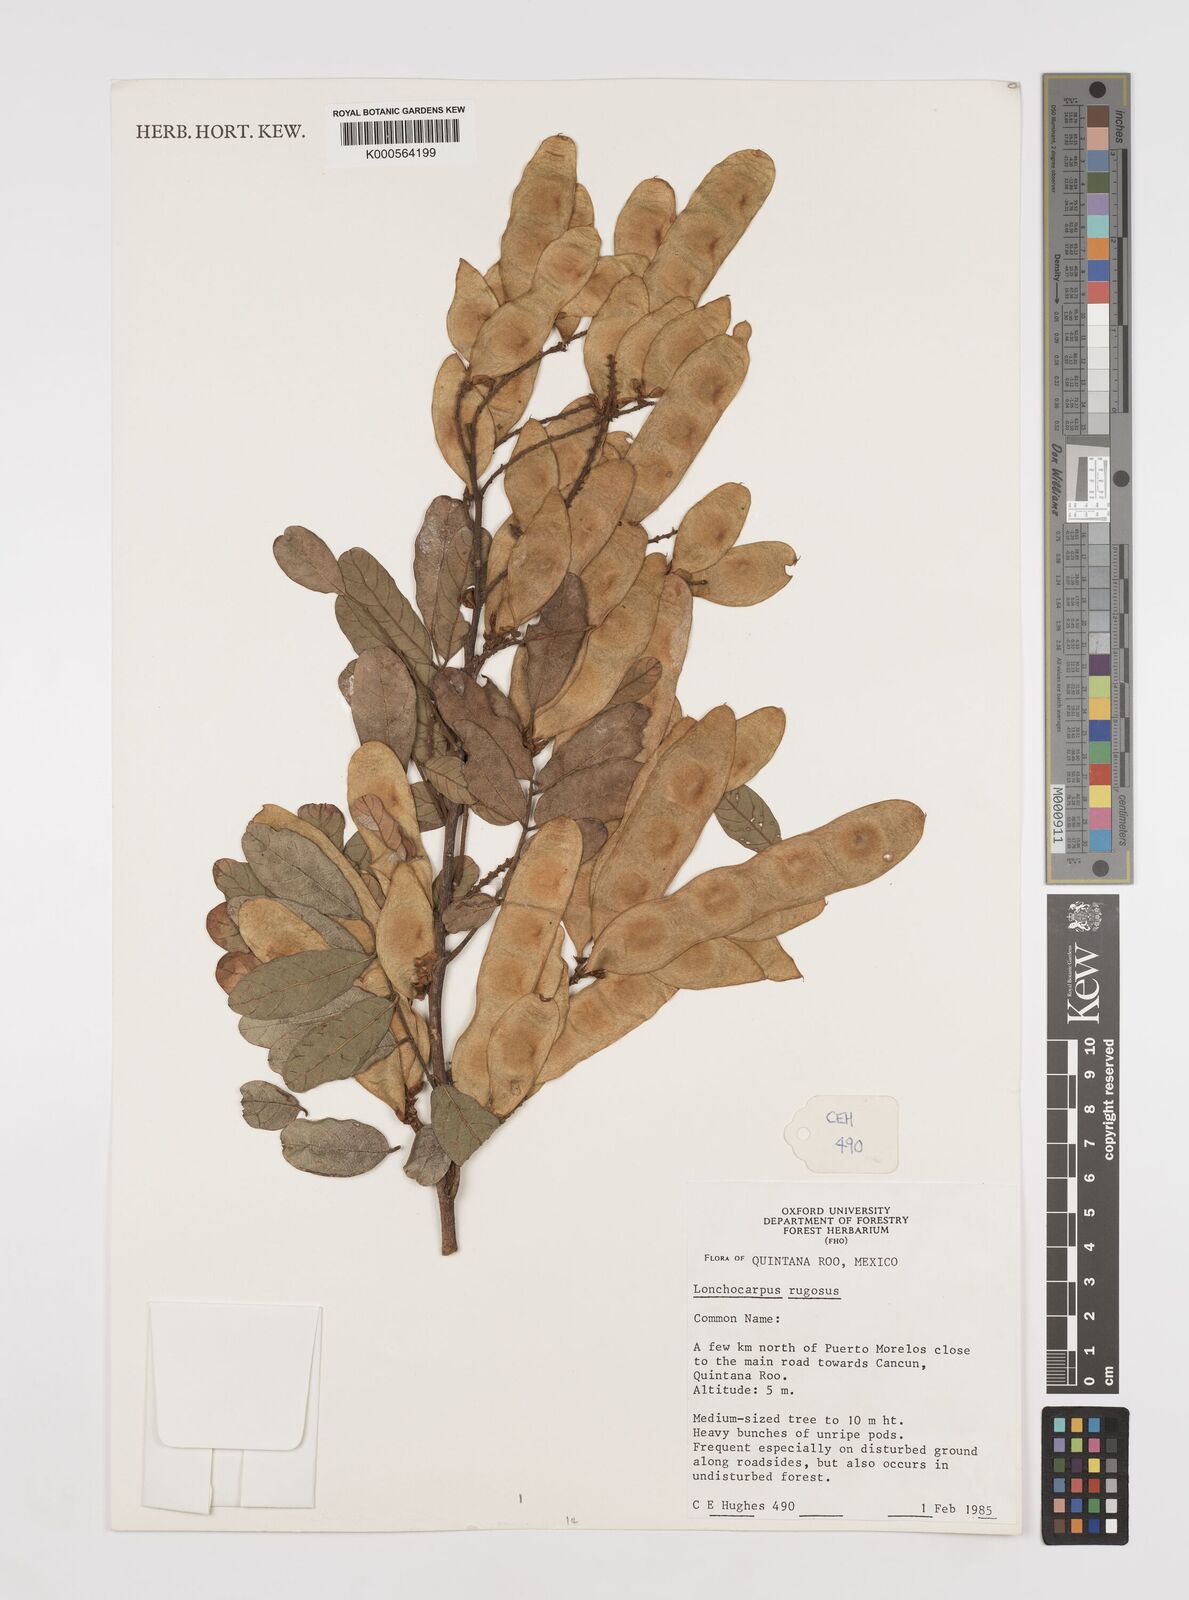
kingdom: Plantae
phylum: Tracheophyta
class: Magnoliopsida
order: Fabales
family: Fabaceae
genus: Lonchocarpus
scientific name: Lonchocarpus rugosus
